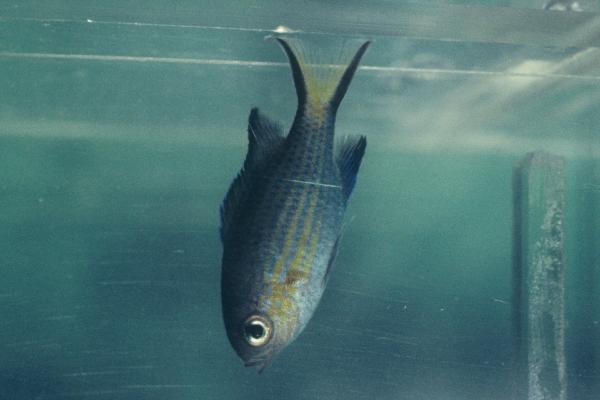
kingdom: Animalia
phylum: Chordata
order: Perciformes
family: Pomacentridae
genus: Chromis
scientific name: Chromis nigrura
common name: Blacktail chromis
